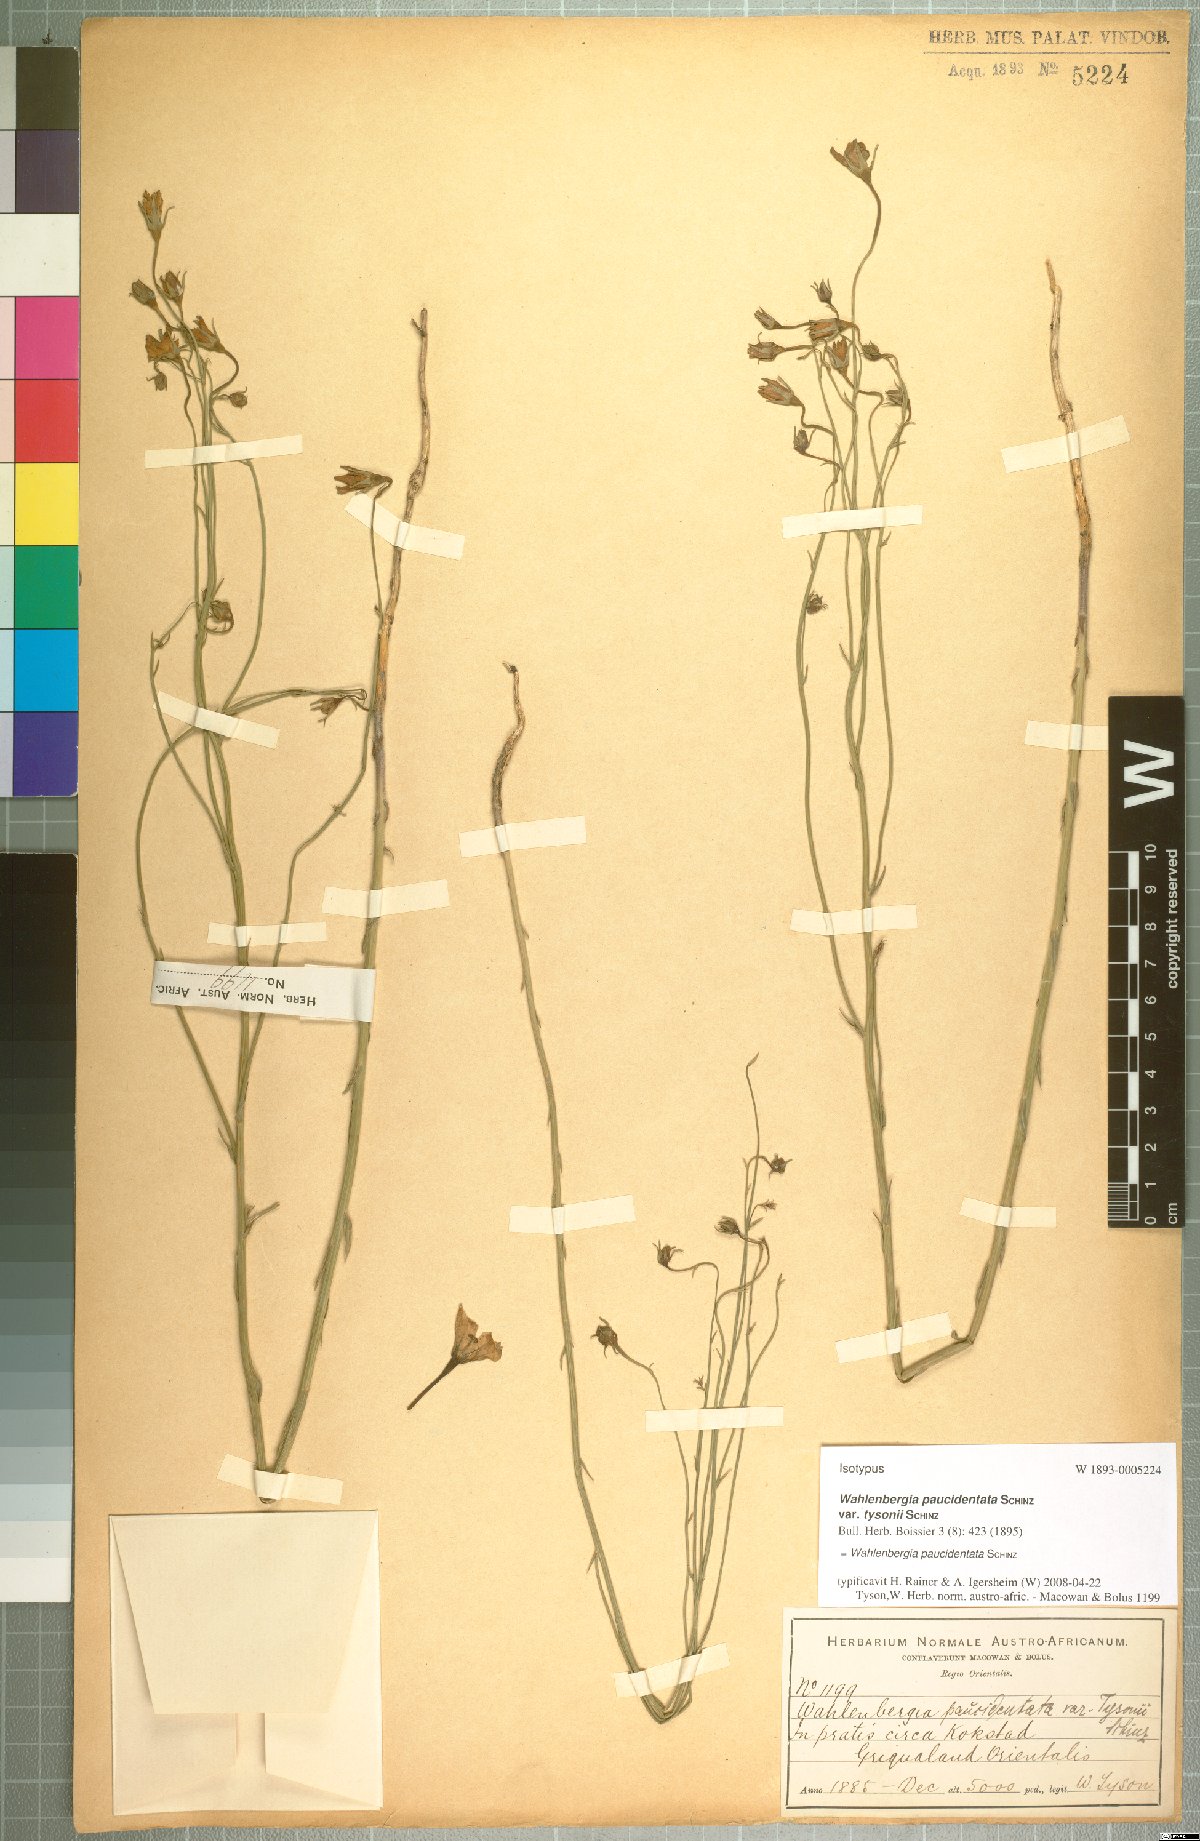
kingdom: Plantae
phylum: Tracheophyta
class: Magnoliopsida
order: Asterales
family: Campanulaceae
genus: Wahlenbergia
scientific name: Wahlenbergia paucidentata
